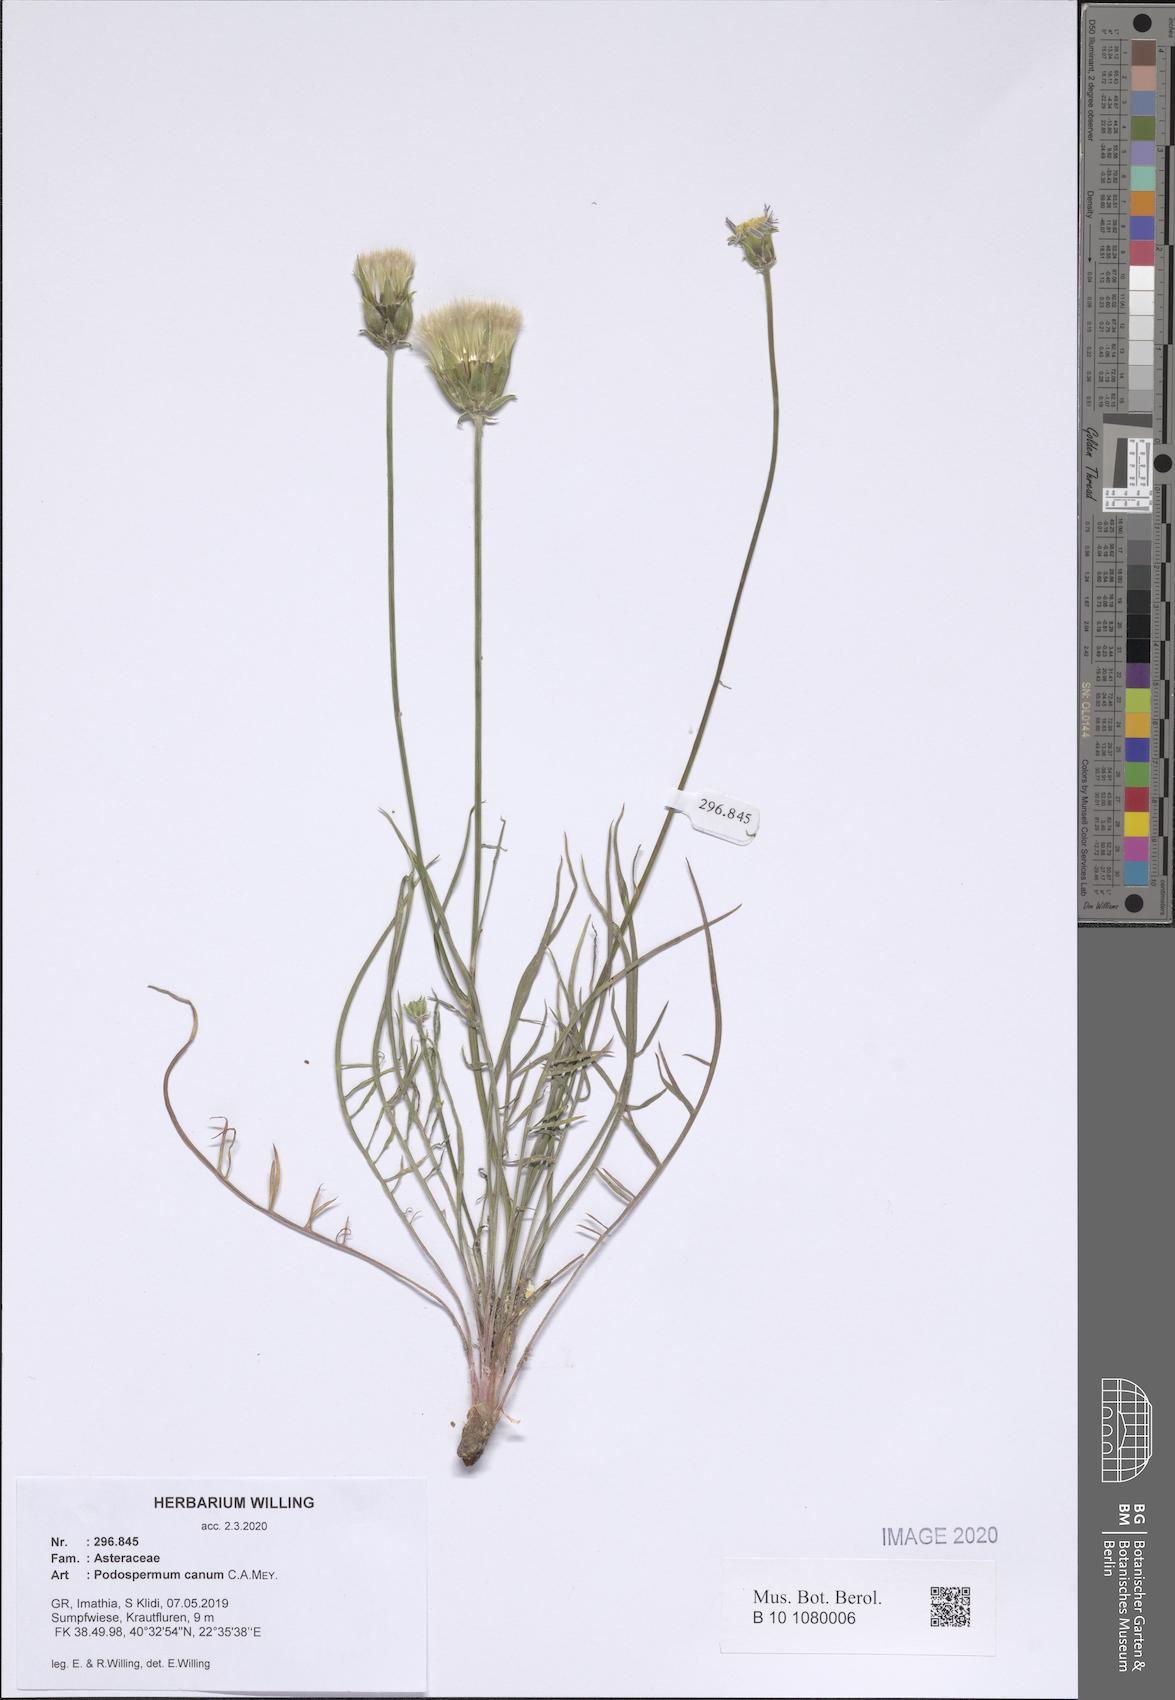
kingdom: Plantae
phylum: Tracheophyta
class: Magnoliopsida
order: Asterales
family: Asteraceae
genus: Scorzonera
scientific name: Scorzonera cana
